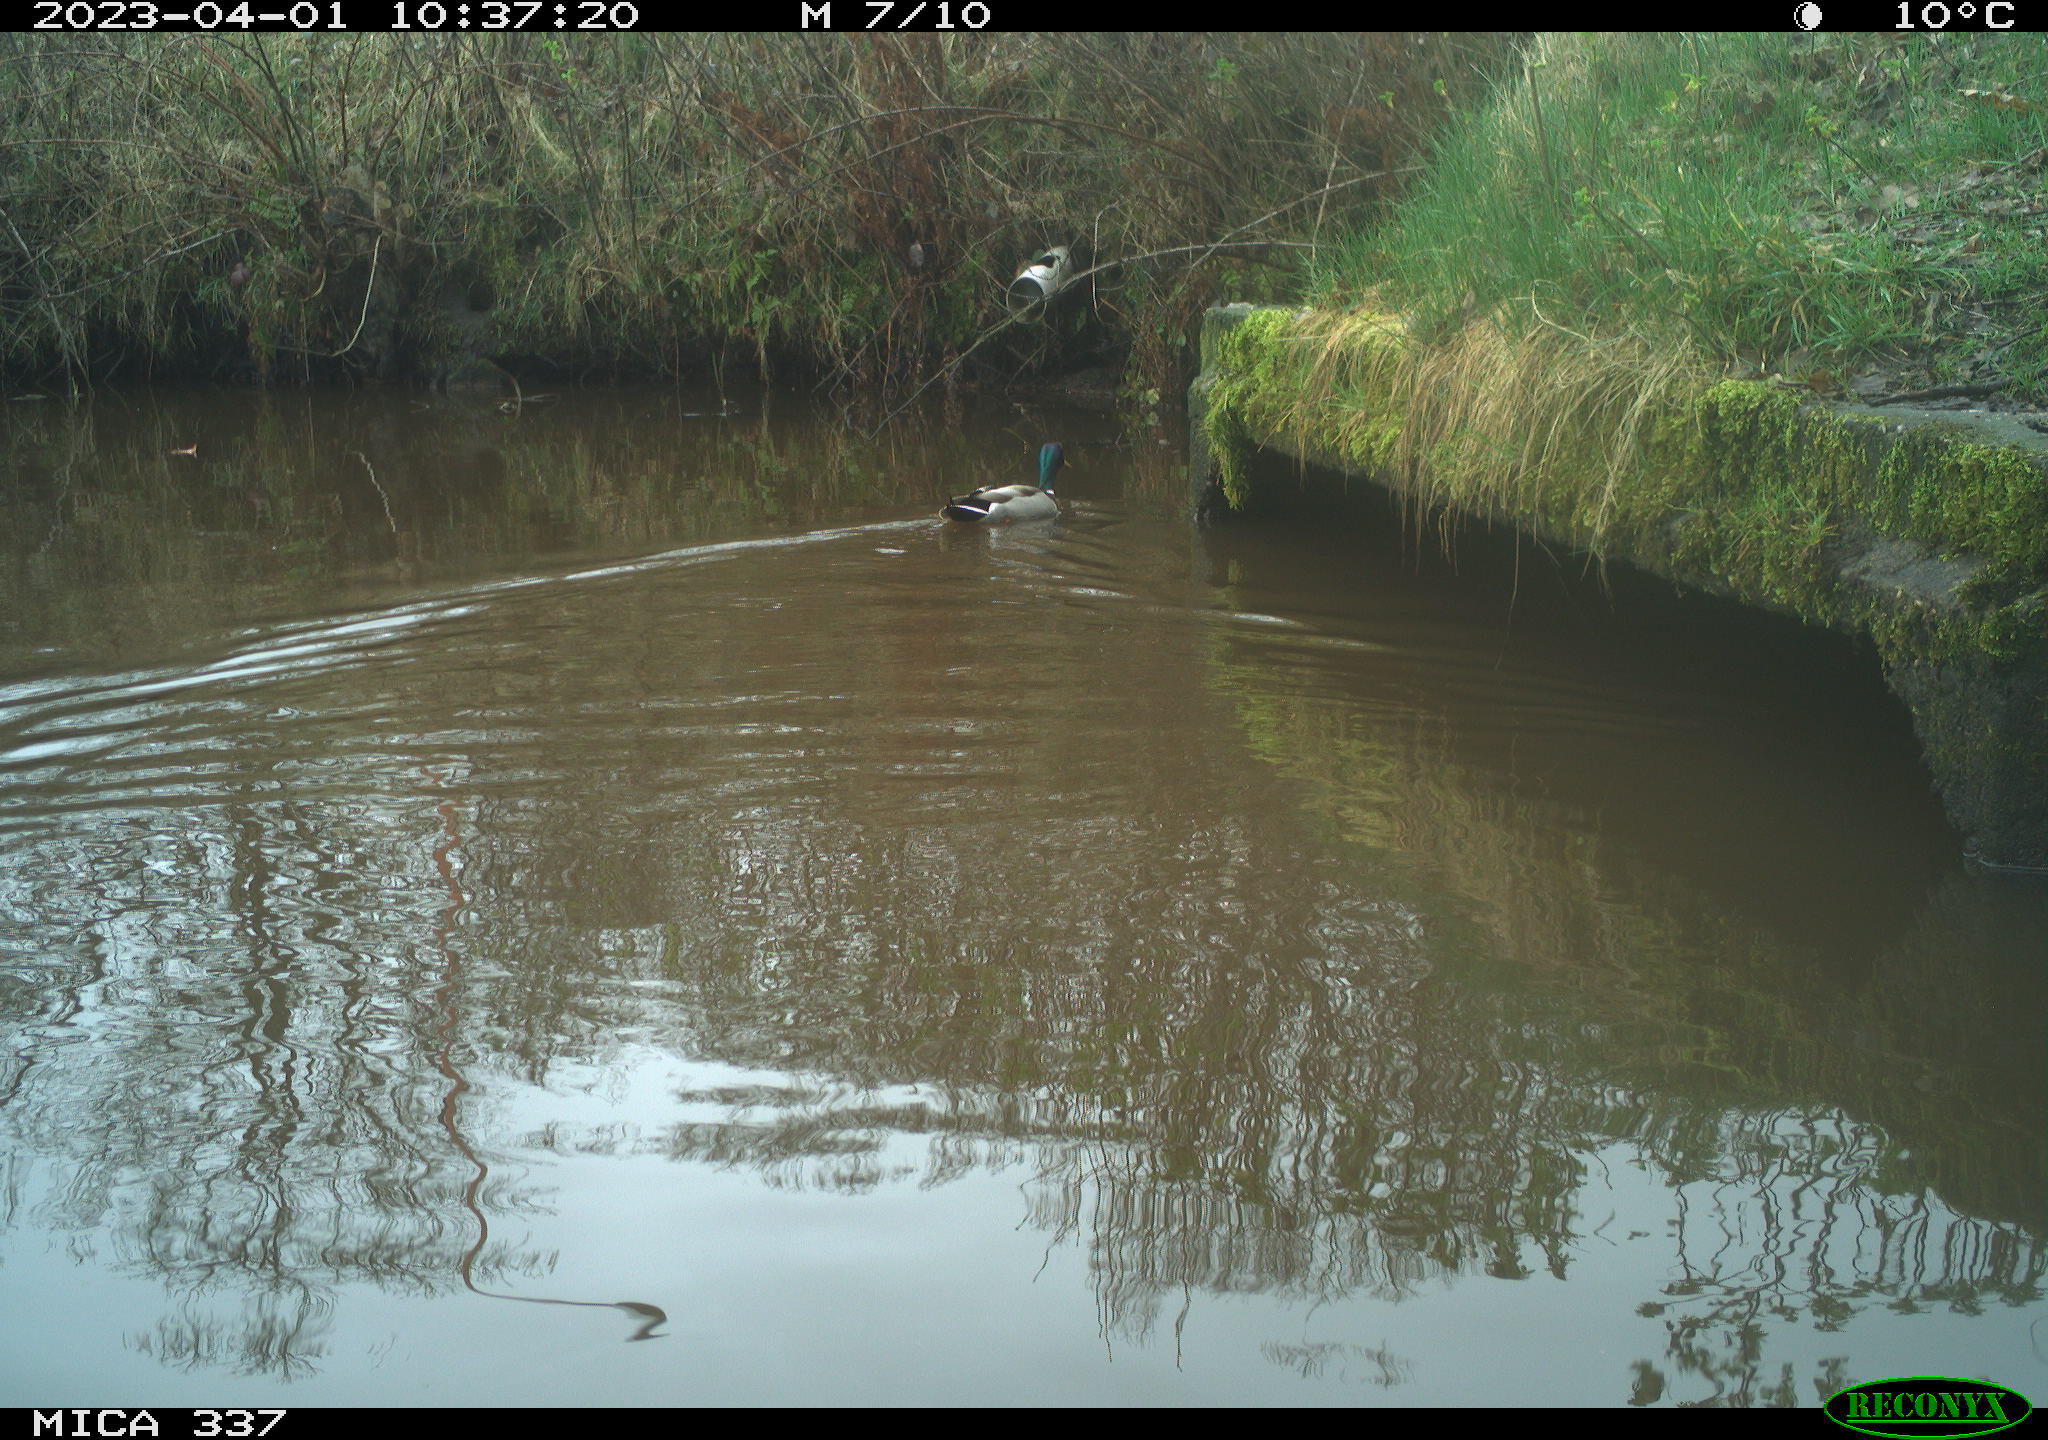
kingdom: Animalia
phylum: Chordata
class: Aves
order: Anseriformes
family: Anatidae
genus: Anas
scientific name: Anas
